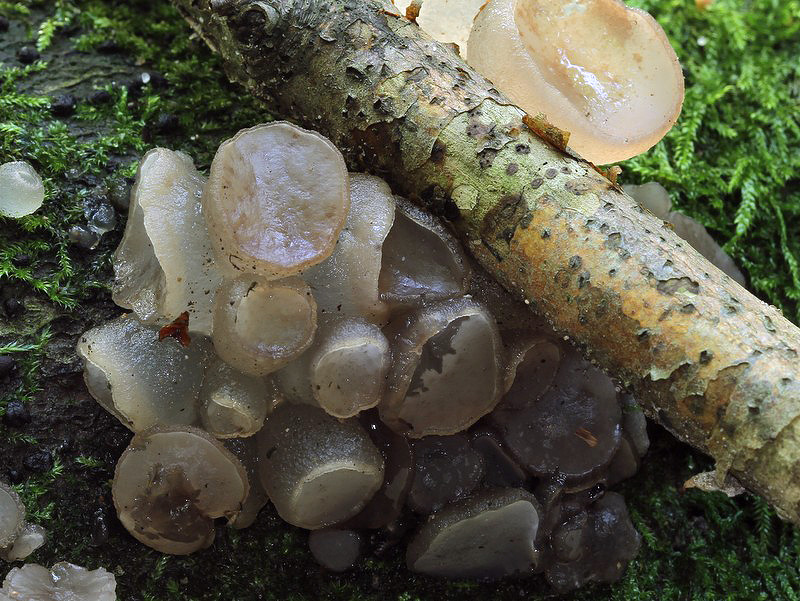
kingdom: Fungi
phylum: Ascomycota
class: Leotiomycetes
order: Helotiales
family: Gelatinodiscaceae
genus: Neobulgaria
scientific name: Neobulgaria pura
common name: bleg bævreskive
